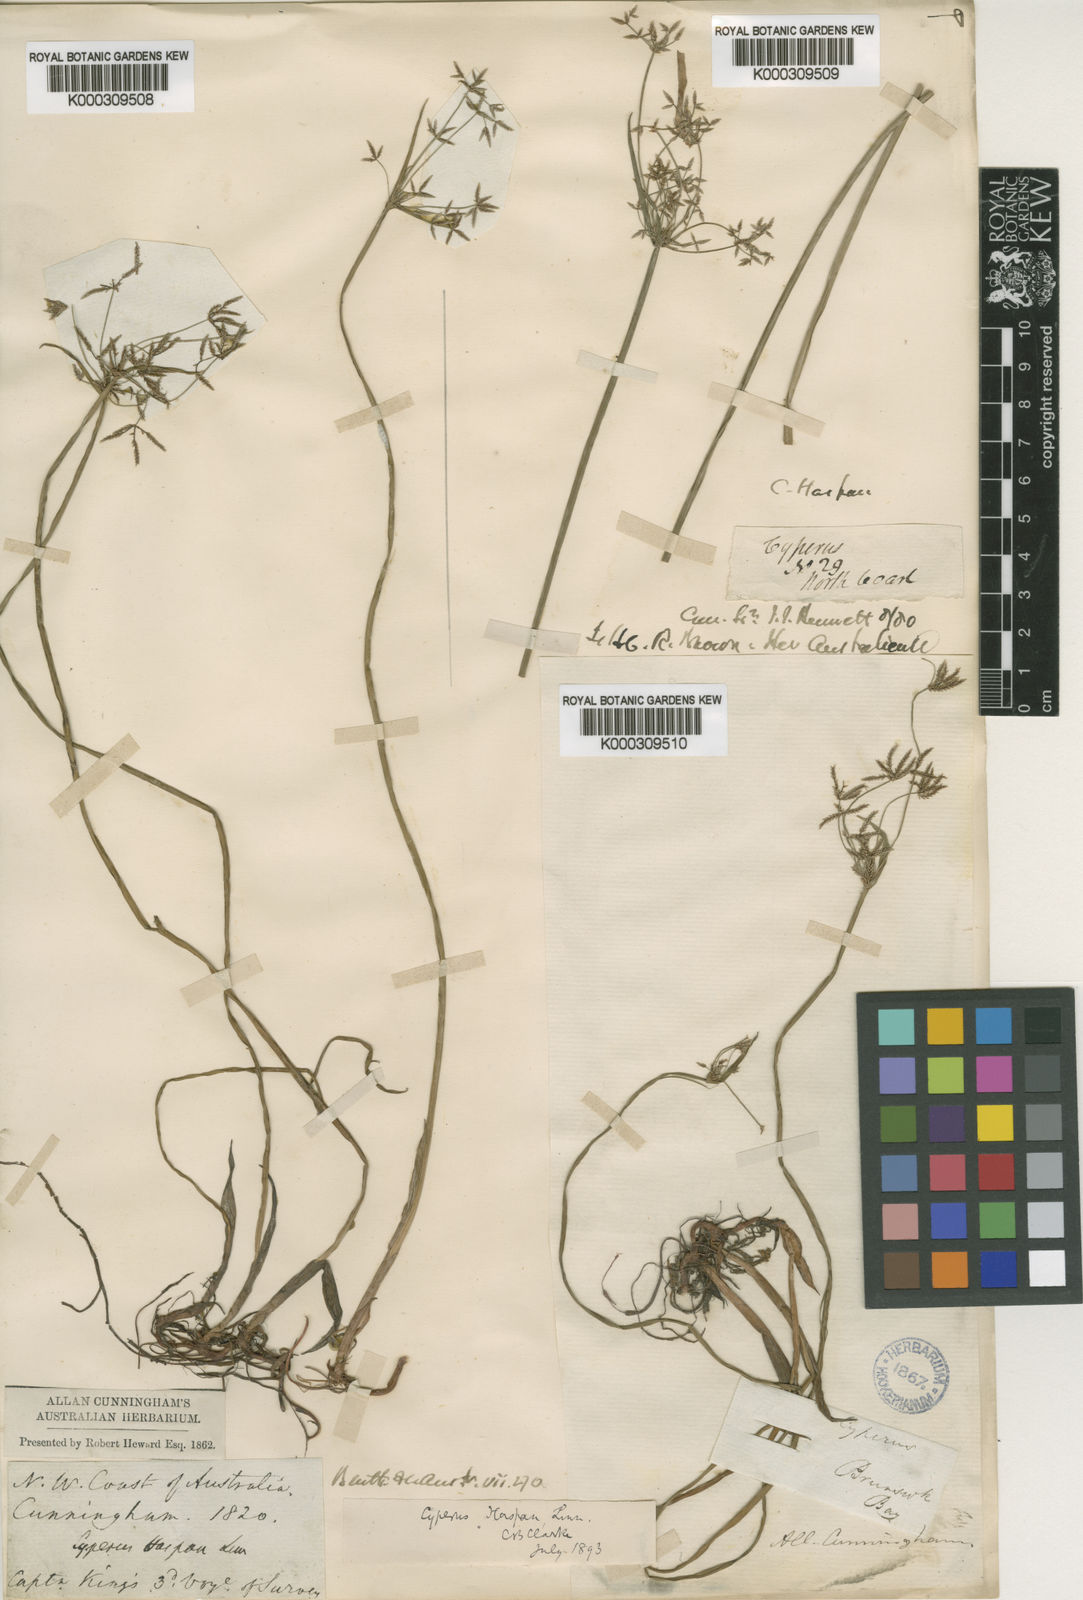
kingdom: Plantae
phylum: Tracheophyta
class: Liliopsida
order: Poales
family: Cyperaceae
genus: Cyperus
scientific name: Cyperus haspan
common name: Haspan flatsedge
